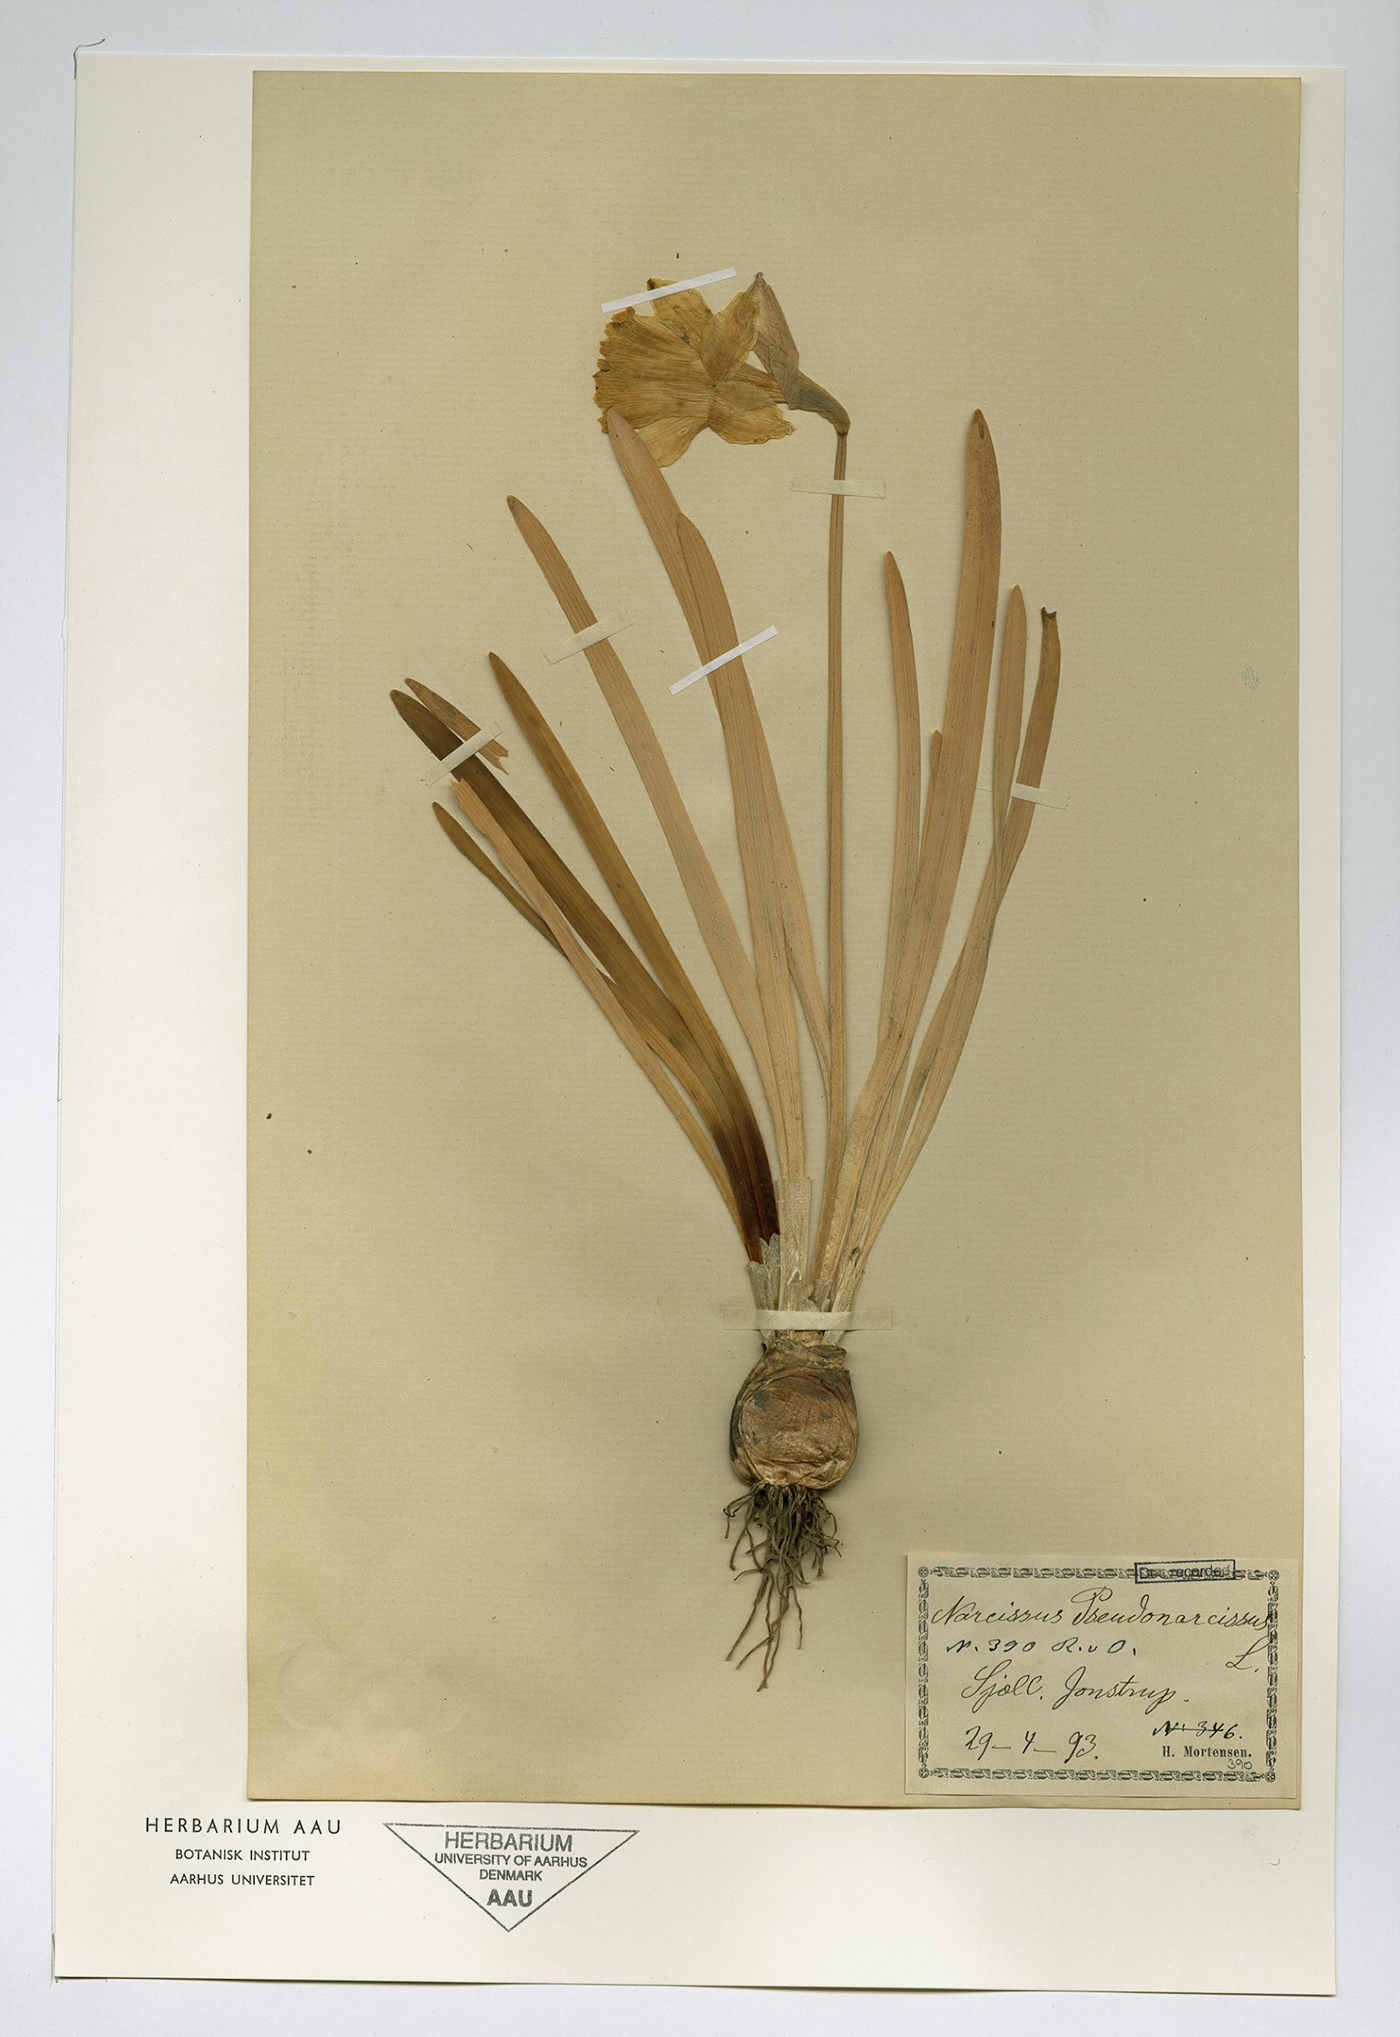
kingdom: Plantae
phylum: Tracheophyta
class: Liliopsida
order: Asparagales
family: Amaryllidaceae
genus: Narcissus
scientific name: Narcissus pseudonarcissus
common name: Daffodil
